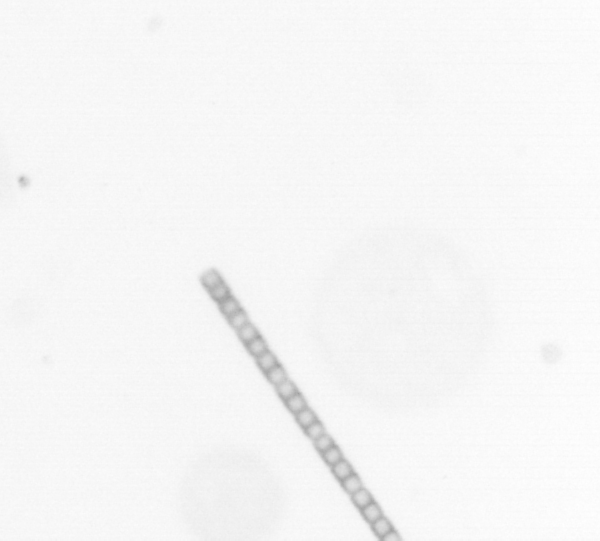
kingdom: Chromista
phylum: Ochrophyta
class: Bacillariophyceae
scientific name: Bacillariophyceae
